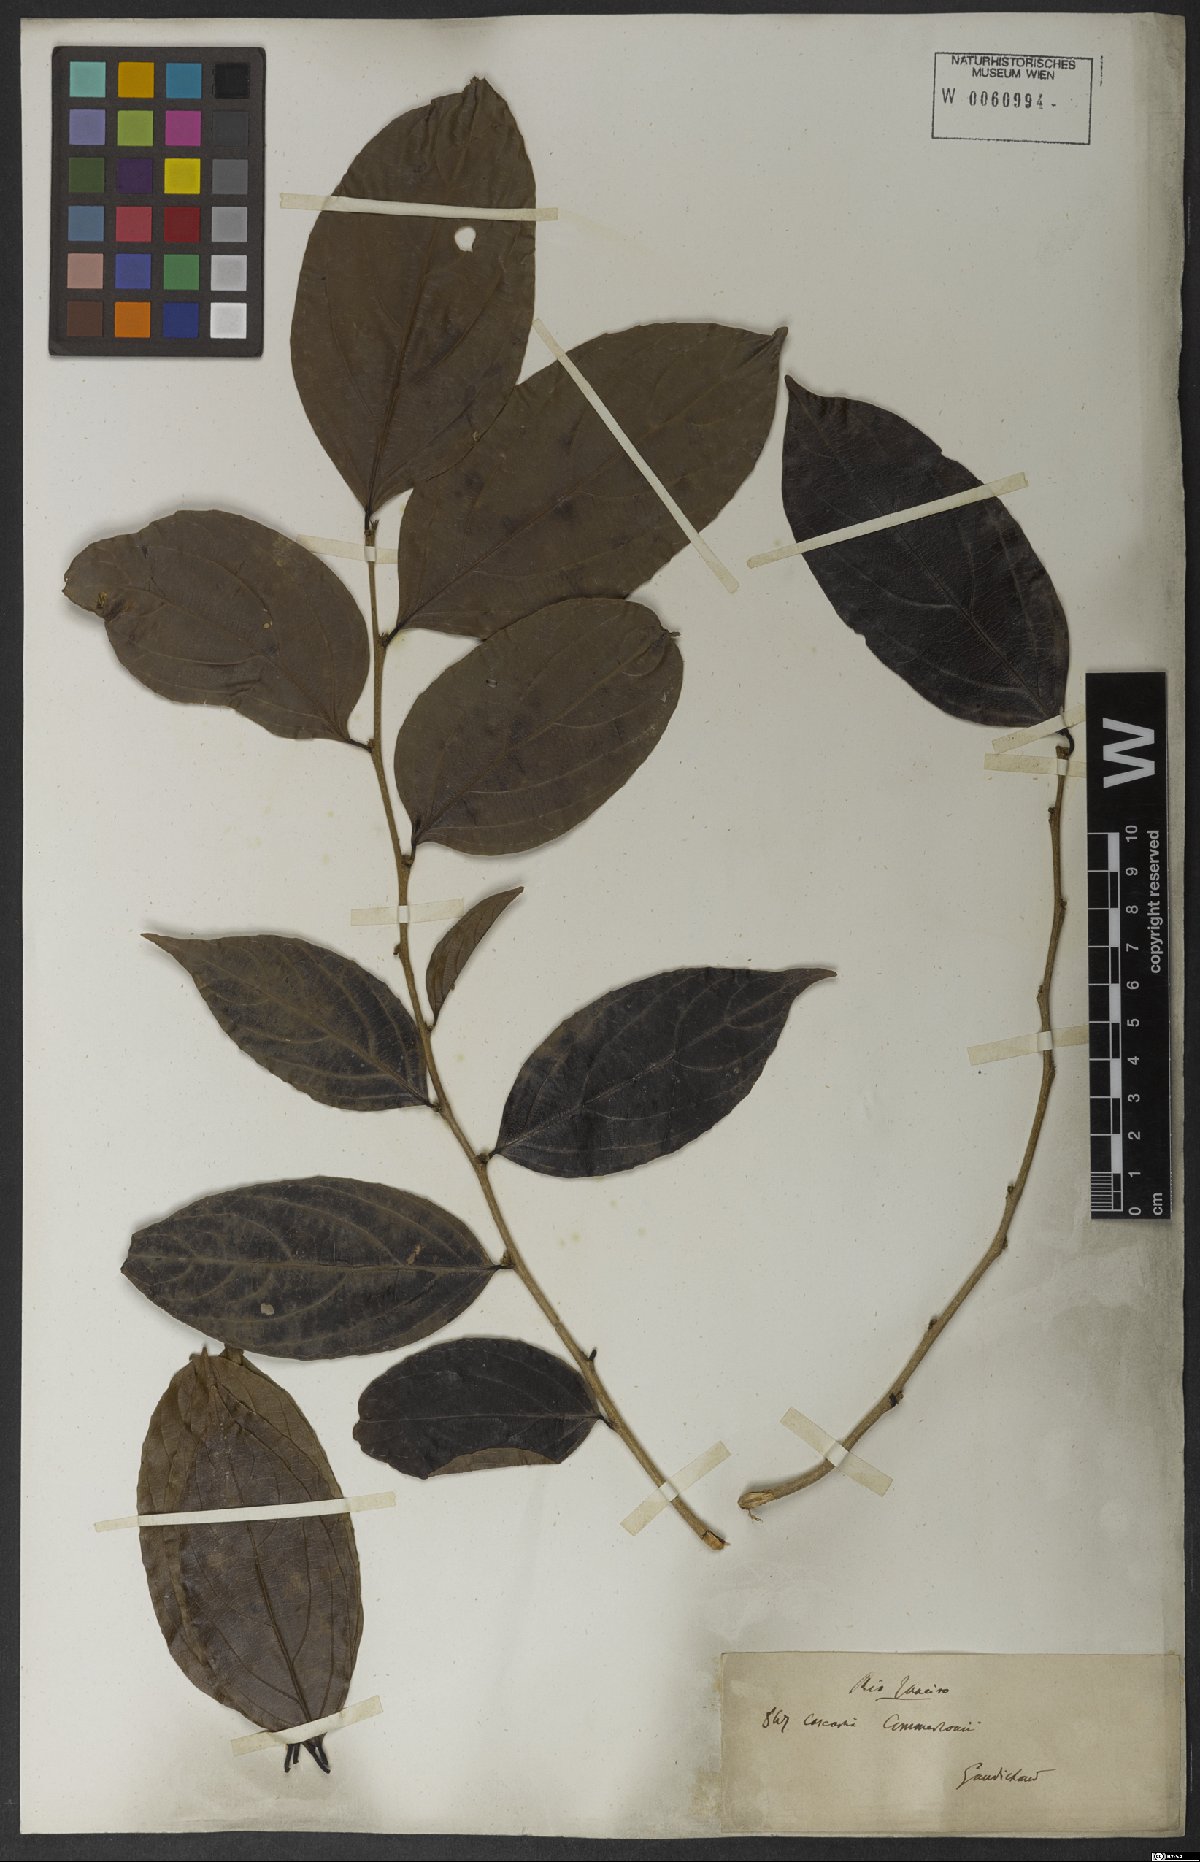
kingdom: Plantae
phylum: Tracheophyta
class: Magnoliopsida
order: Malpighiales
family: Salicaceae
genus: Piparea
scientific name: Piparea dentata
